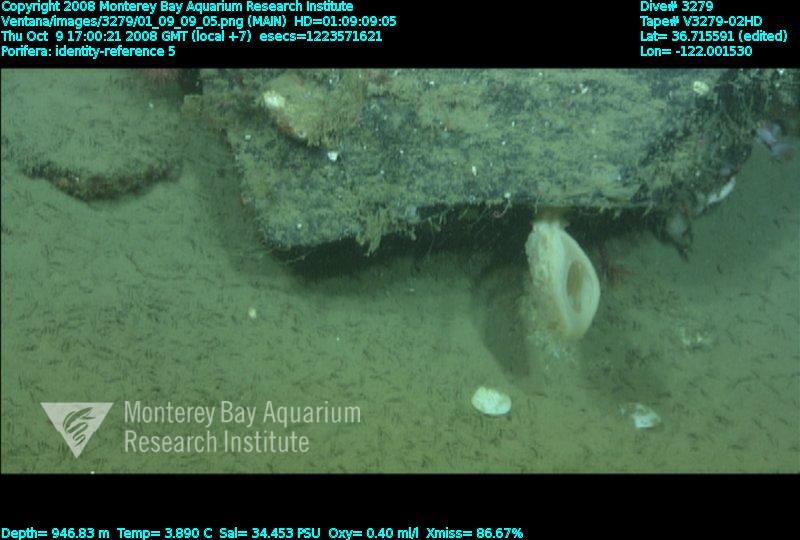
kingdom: Animalia
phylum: Porifera
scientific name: Porifera
